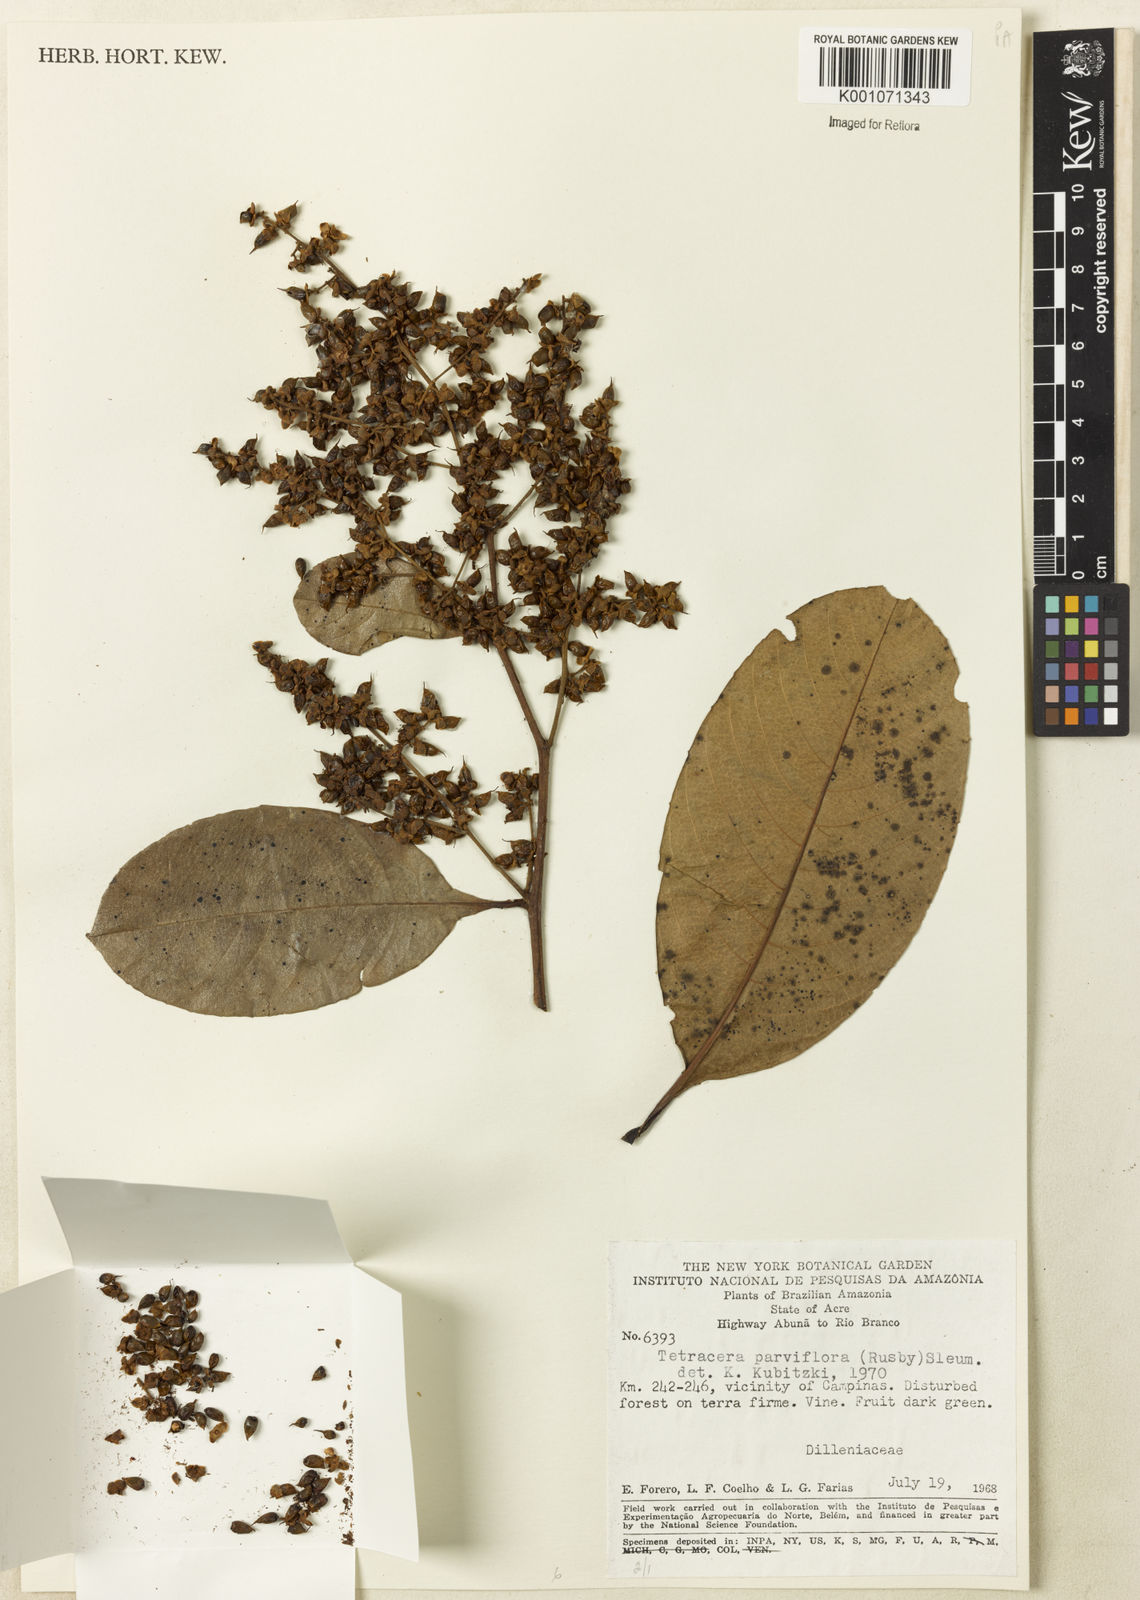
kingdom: Plantae
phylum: Tracheophyta
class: Magnoliopsida
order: Dilleniales
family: Dilleniaceae
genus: Tetracera
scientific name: Tetracera parviflora
